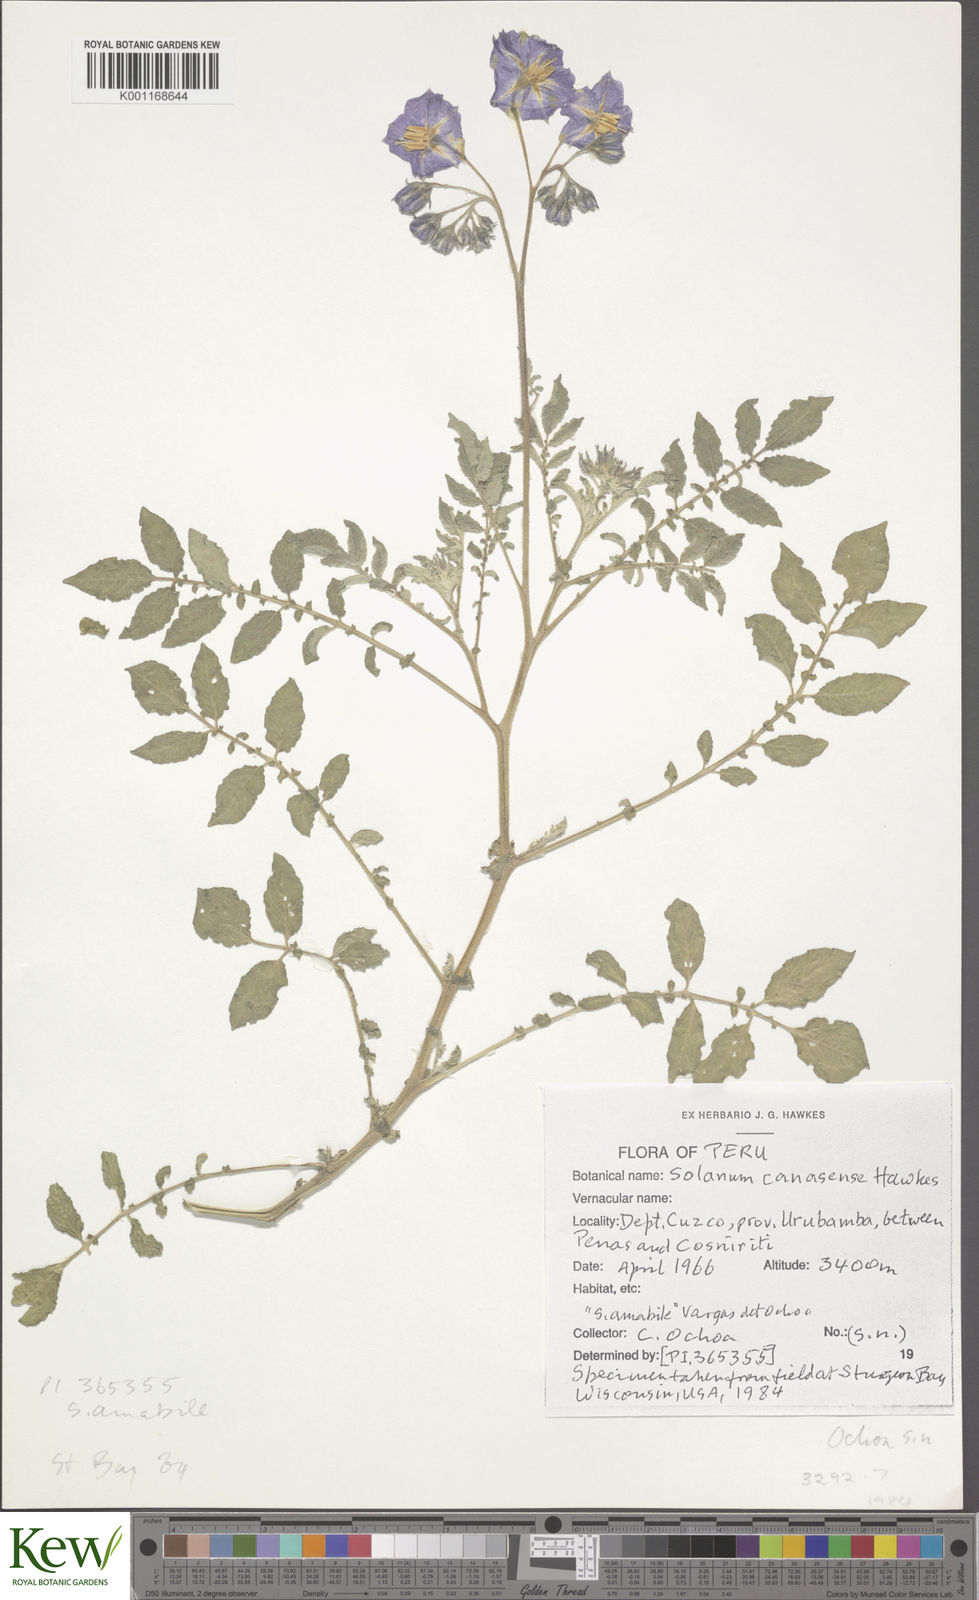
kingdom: Plantae
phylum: Tracheophyta
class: Magnoliopsida
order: Solanales
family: Solanaceae
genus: Solanum
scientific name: Solanum candolleanum
